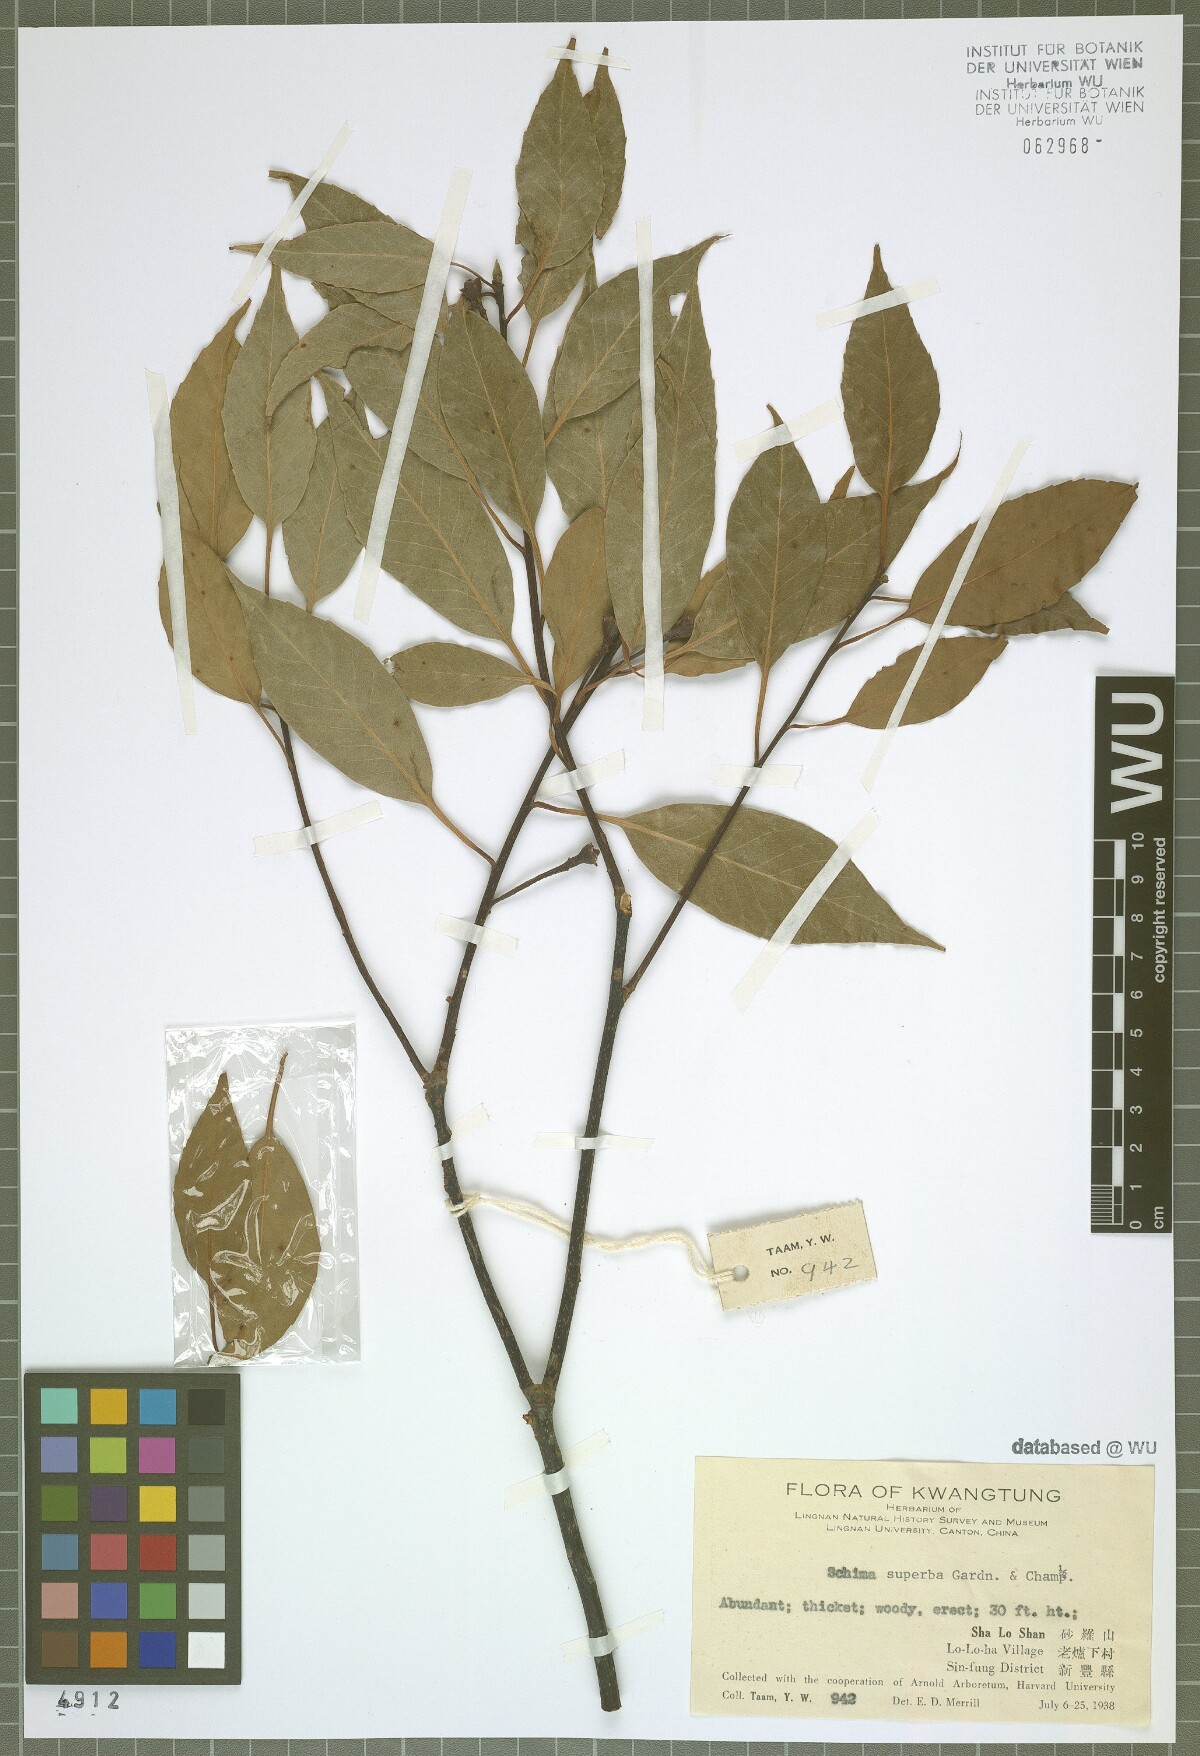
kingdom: Plantae
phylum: Tracheophyta
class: Magnoliopsida
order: Ericales
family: Theaceae
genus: Schima
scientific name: Schima superba
